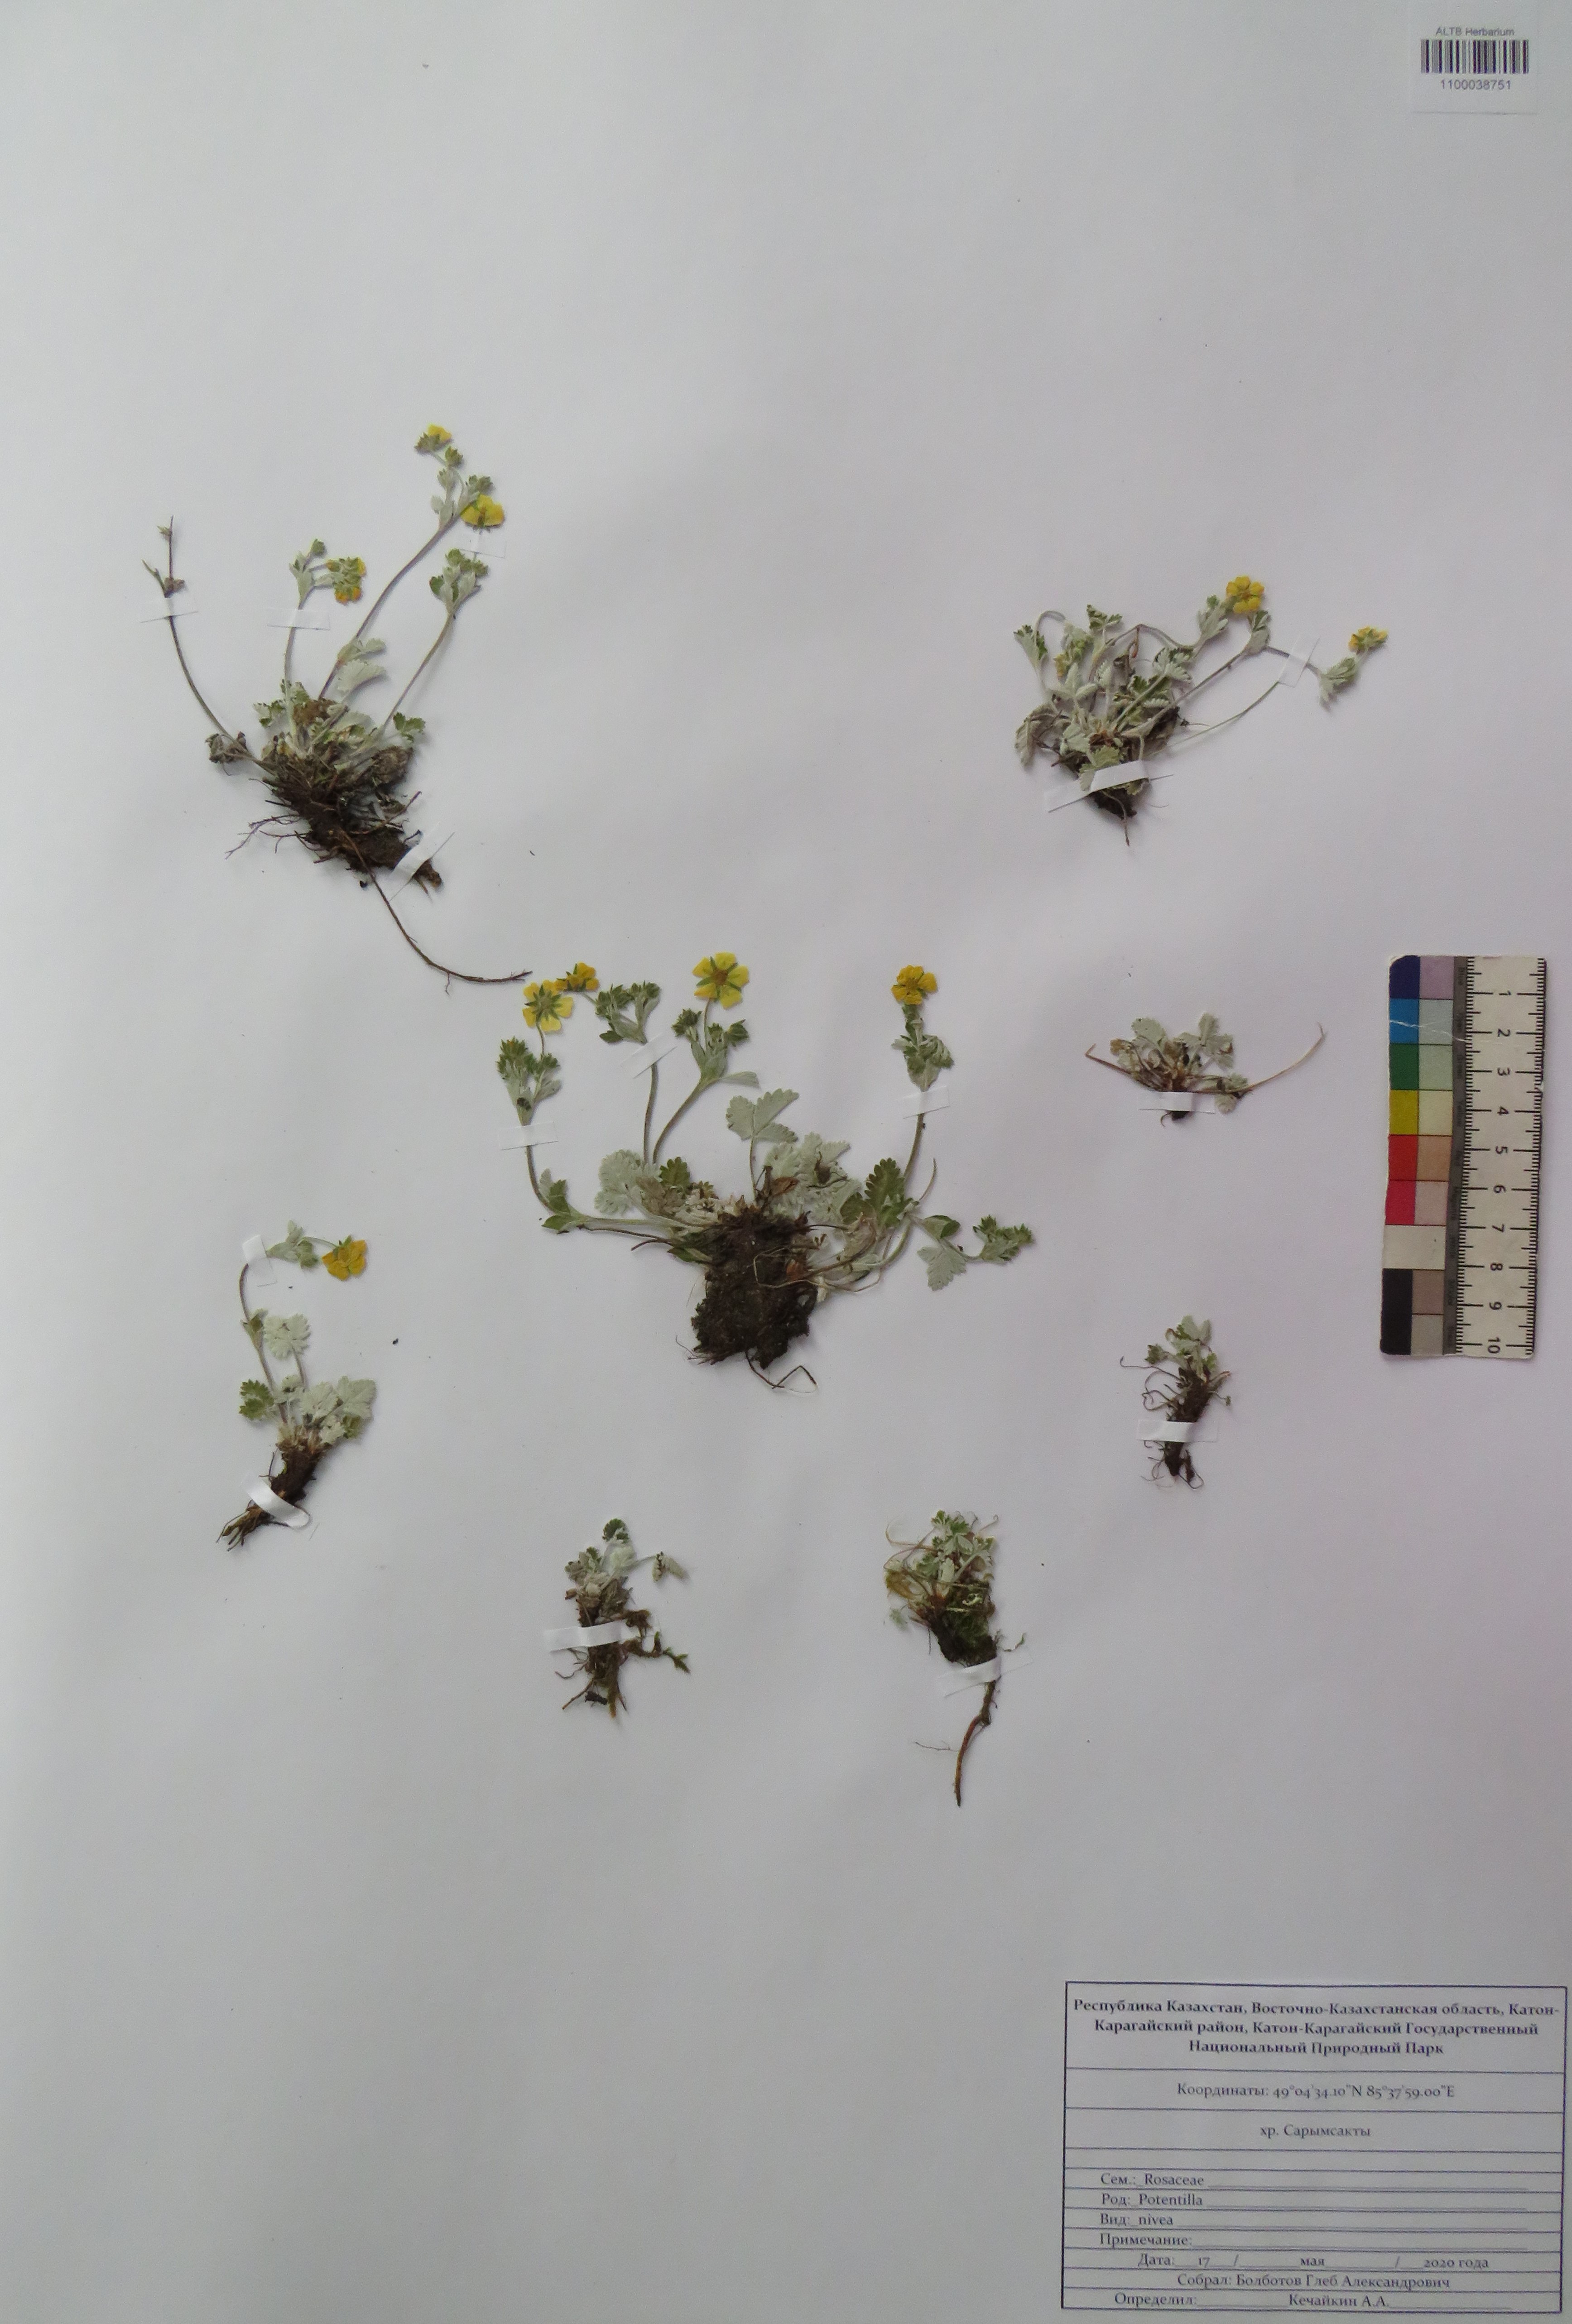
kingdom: Plantae
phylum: Tracheophyta
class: Magnoliopsida
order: Rosales
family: Rosaceae
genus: Potentilla
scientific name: Potentilla nivea
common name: Snow cinquefoil
